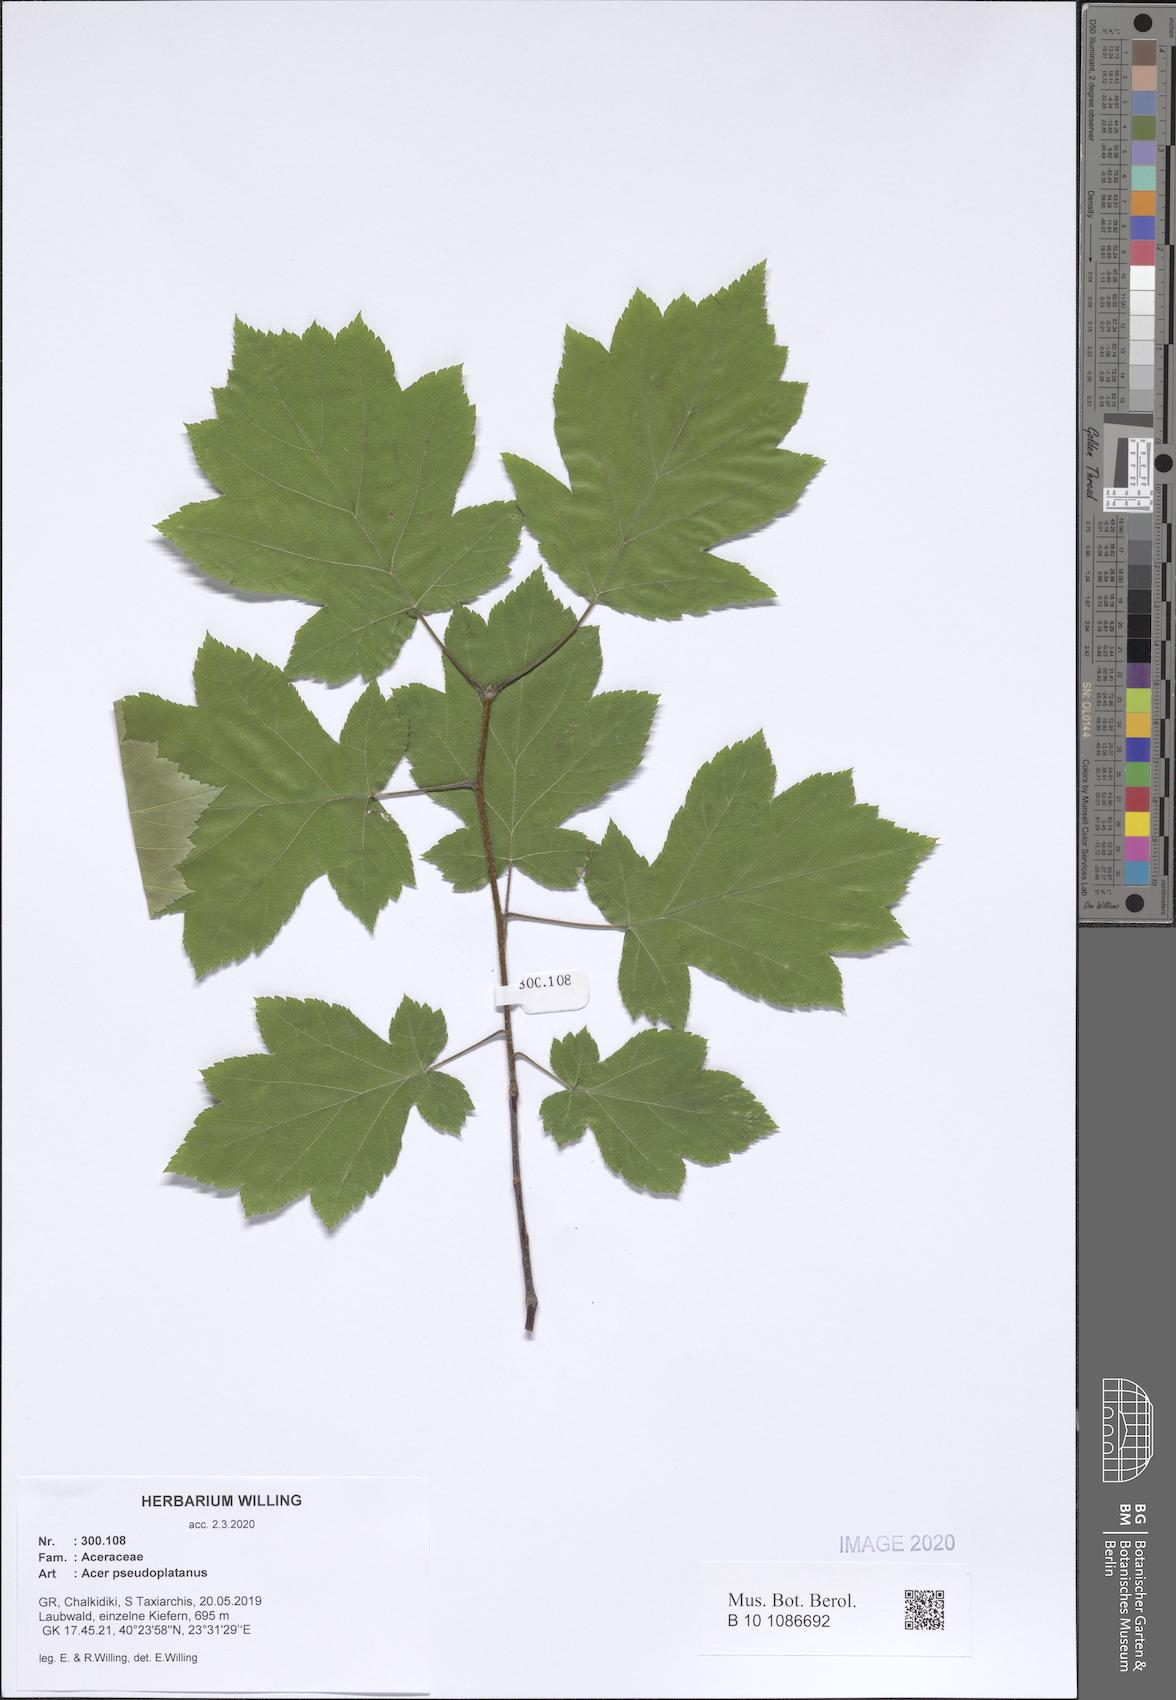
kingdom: Plantae
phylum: Tracheophyta
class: Magnoliopsida
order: Sapindales
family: Sapindaceae
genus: Acer
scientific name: Acer pseudoplatanus
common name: Sycamore
